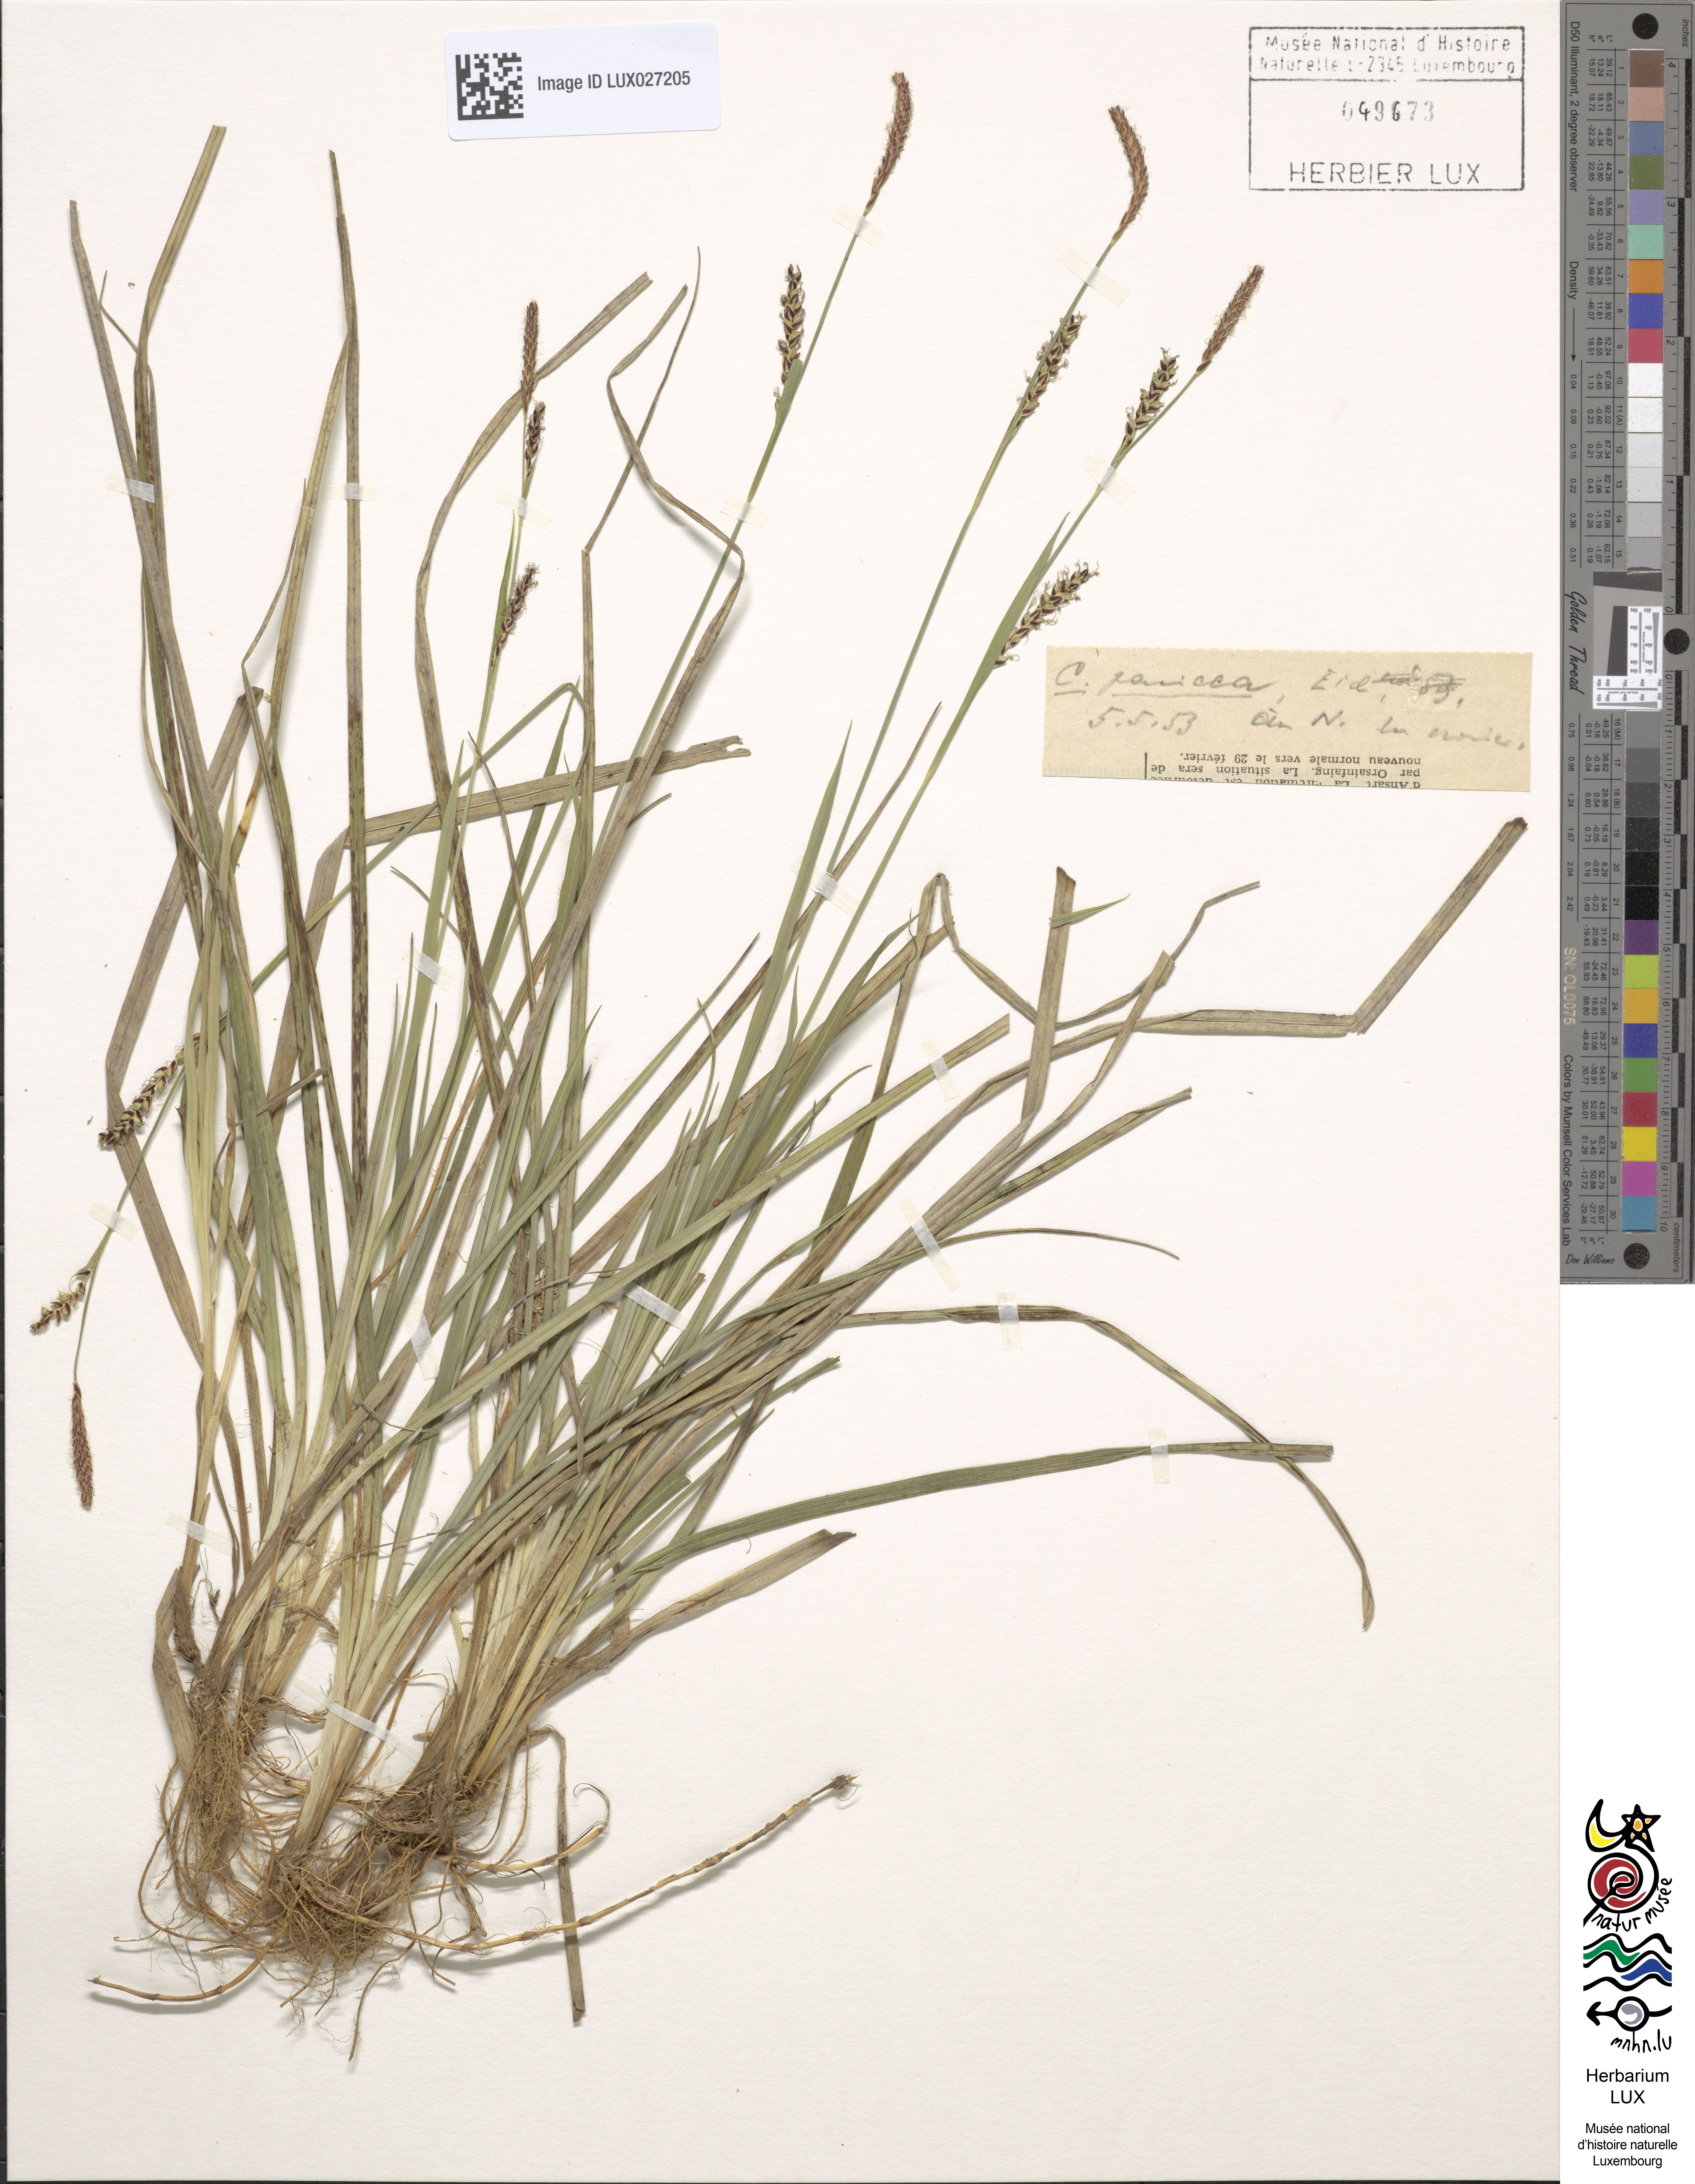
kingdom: Plantae
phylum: Tracheophyta
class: Liliopsida
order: Poales
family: Cyperaceae
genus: Carex
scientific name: Carex panicea
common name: Carnation sedge
